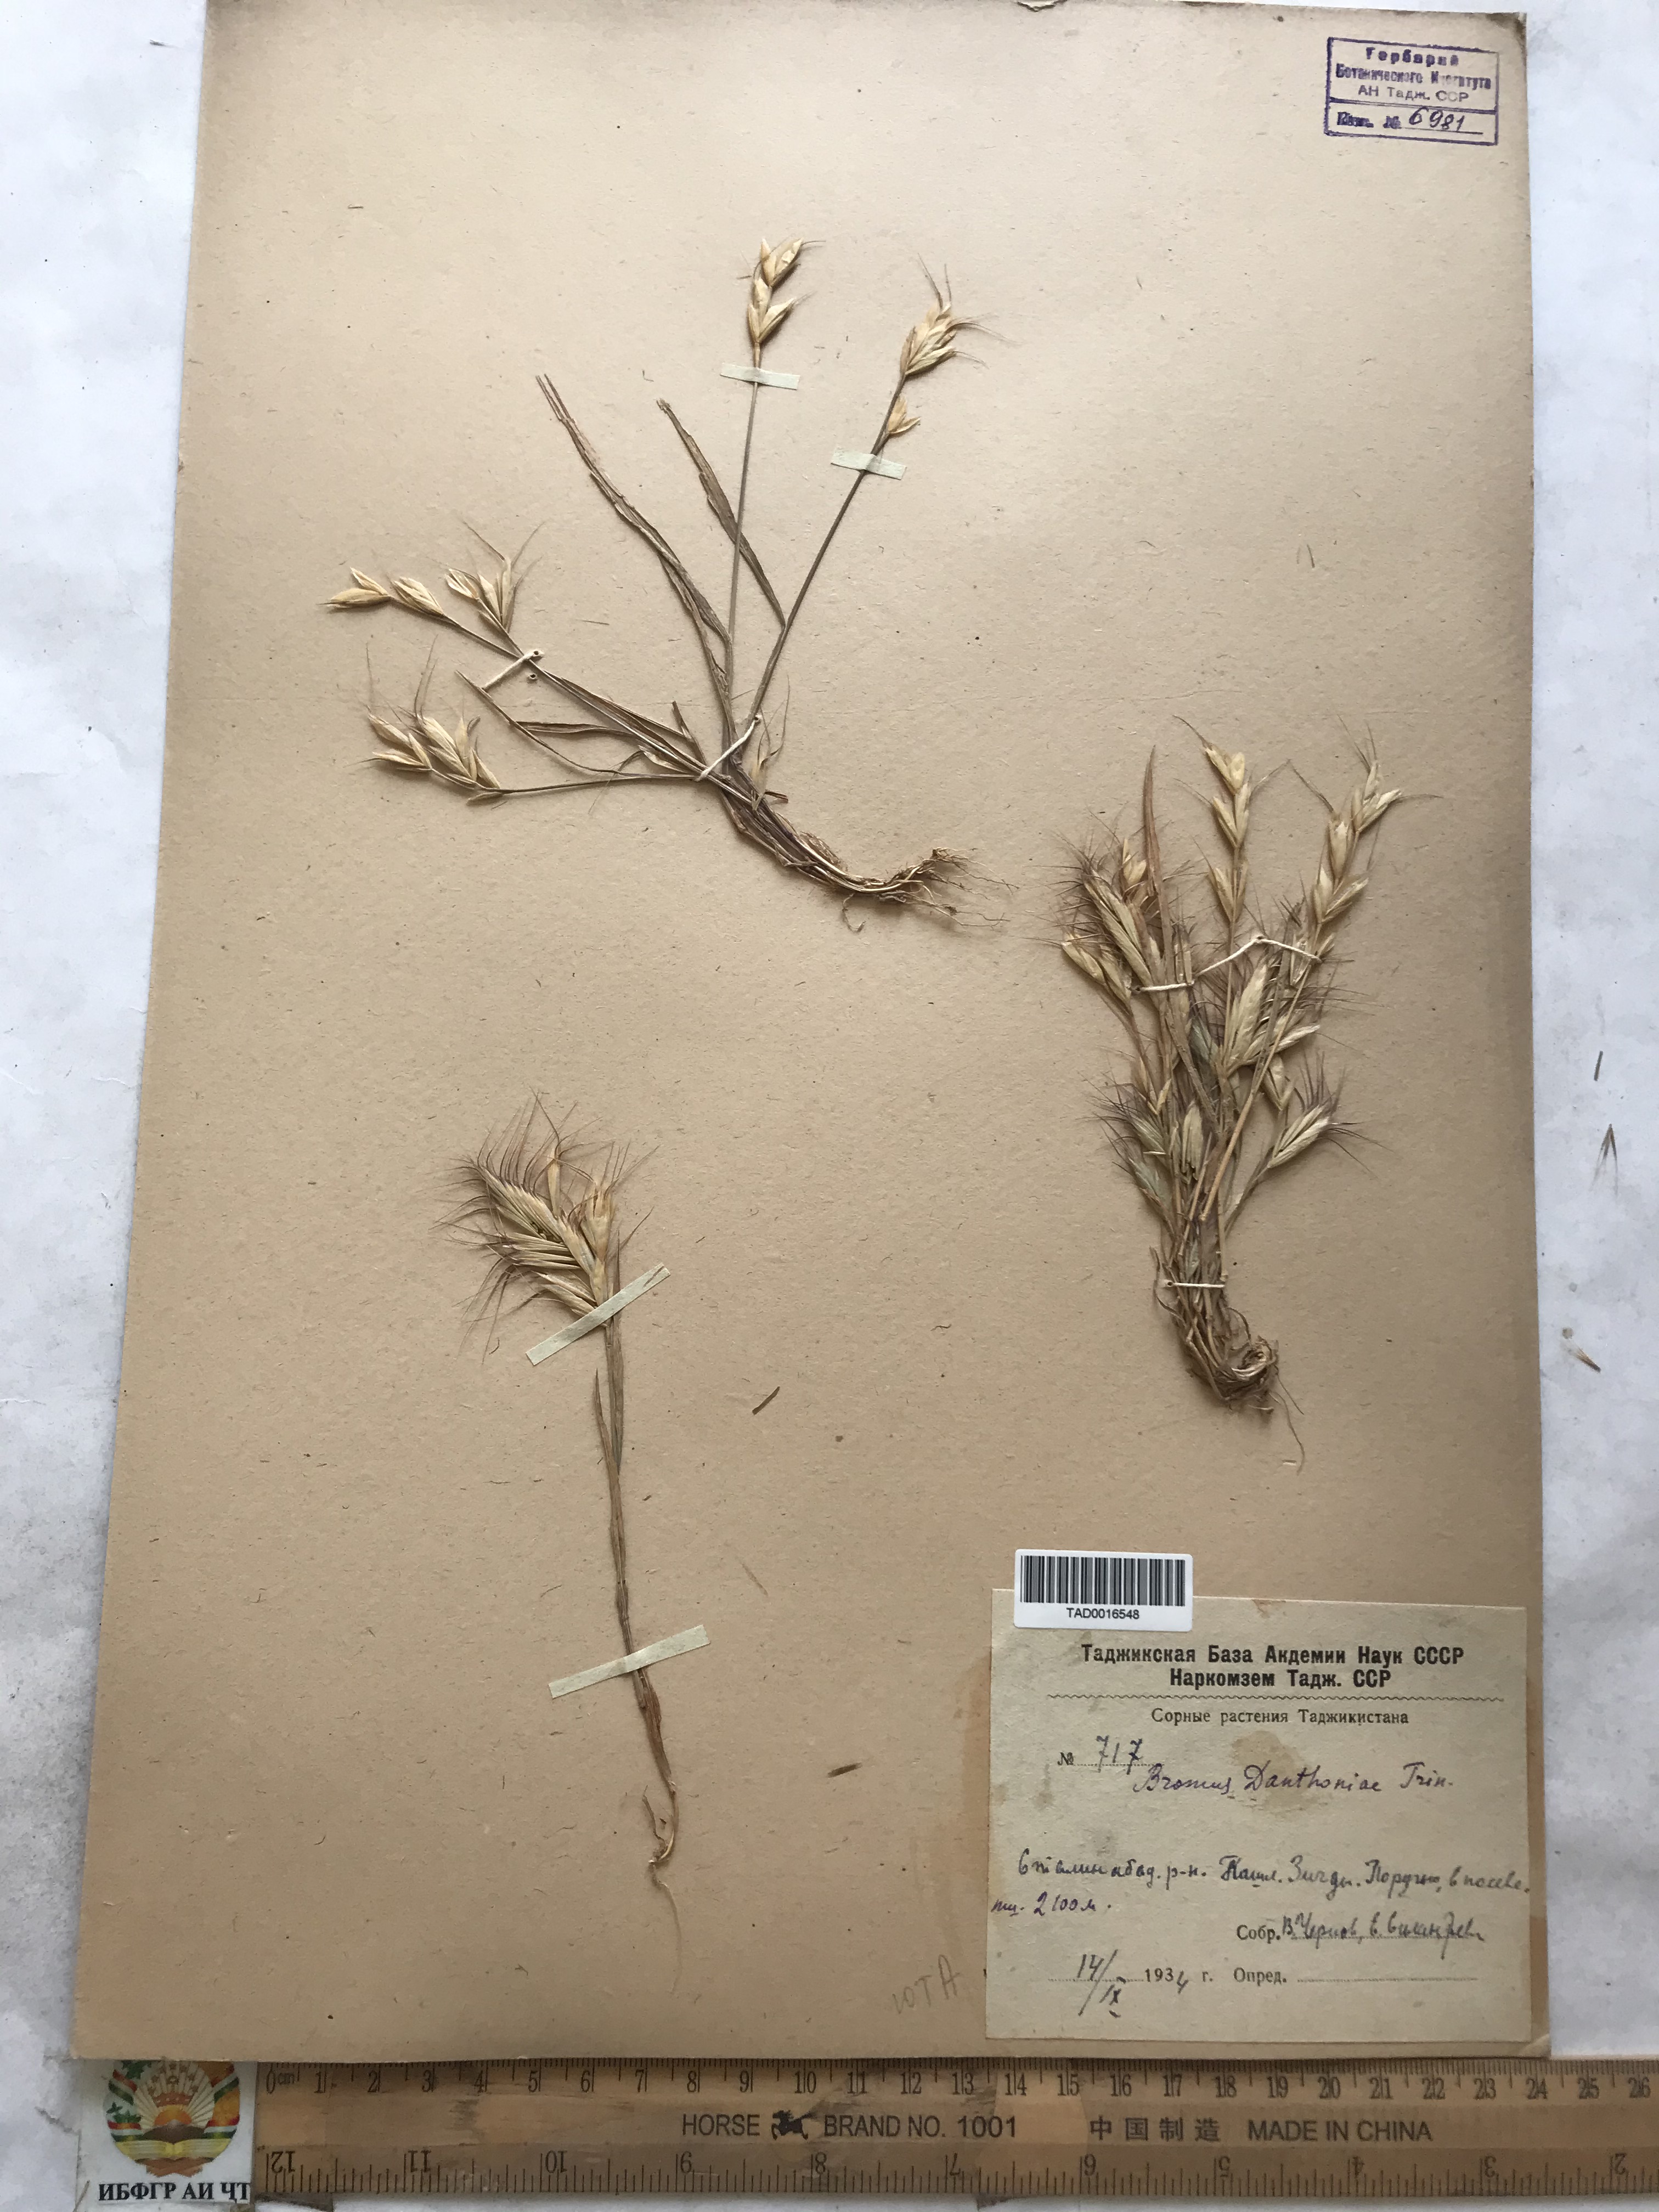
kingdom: Plantae
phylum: Tracheophyta
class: Liliopsida
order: Poales
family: Poaceae
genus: Bromus
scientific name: Bromus danthoniae
